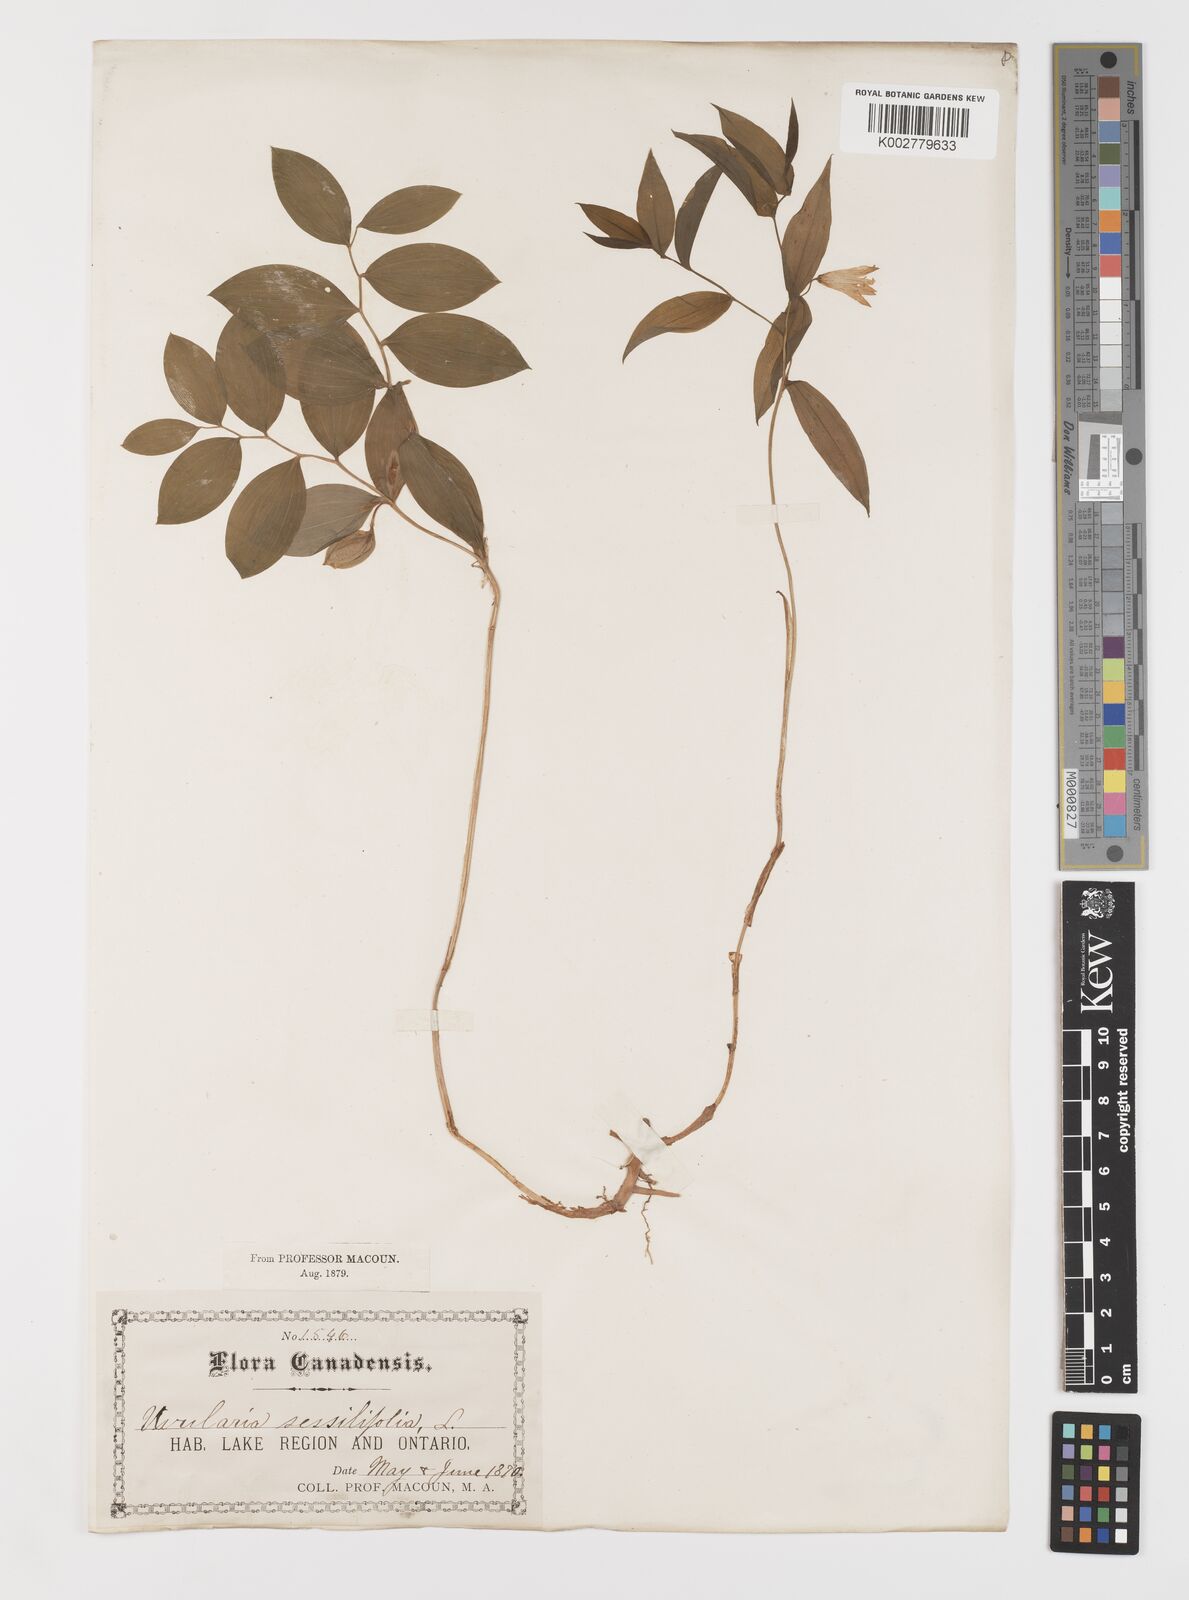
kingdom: Plantae
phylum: Tracheophyta
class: Liliopsida
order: Liliales
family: Colchicaceae
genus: Uvularia
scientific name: Uvularia sessilifolia
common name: Straw-lily
